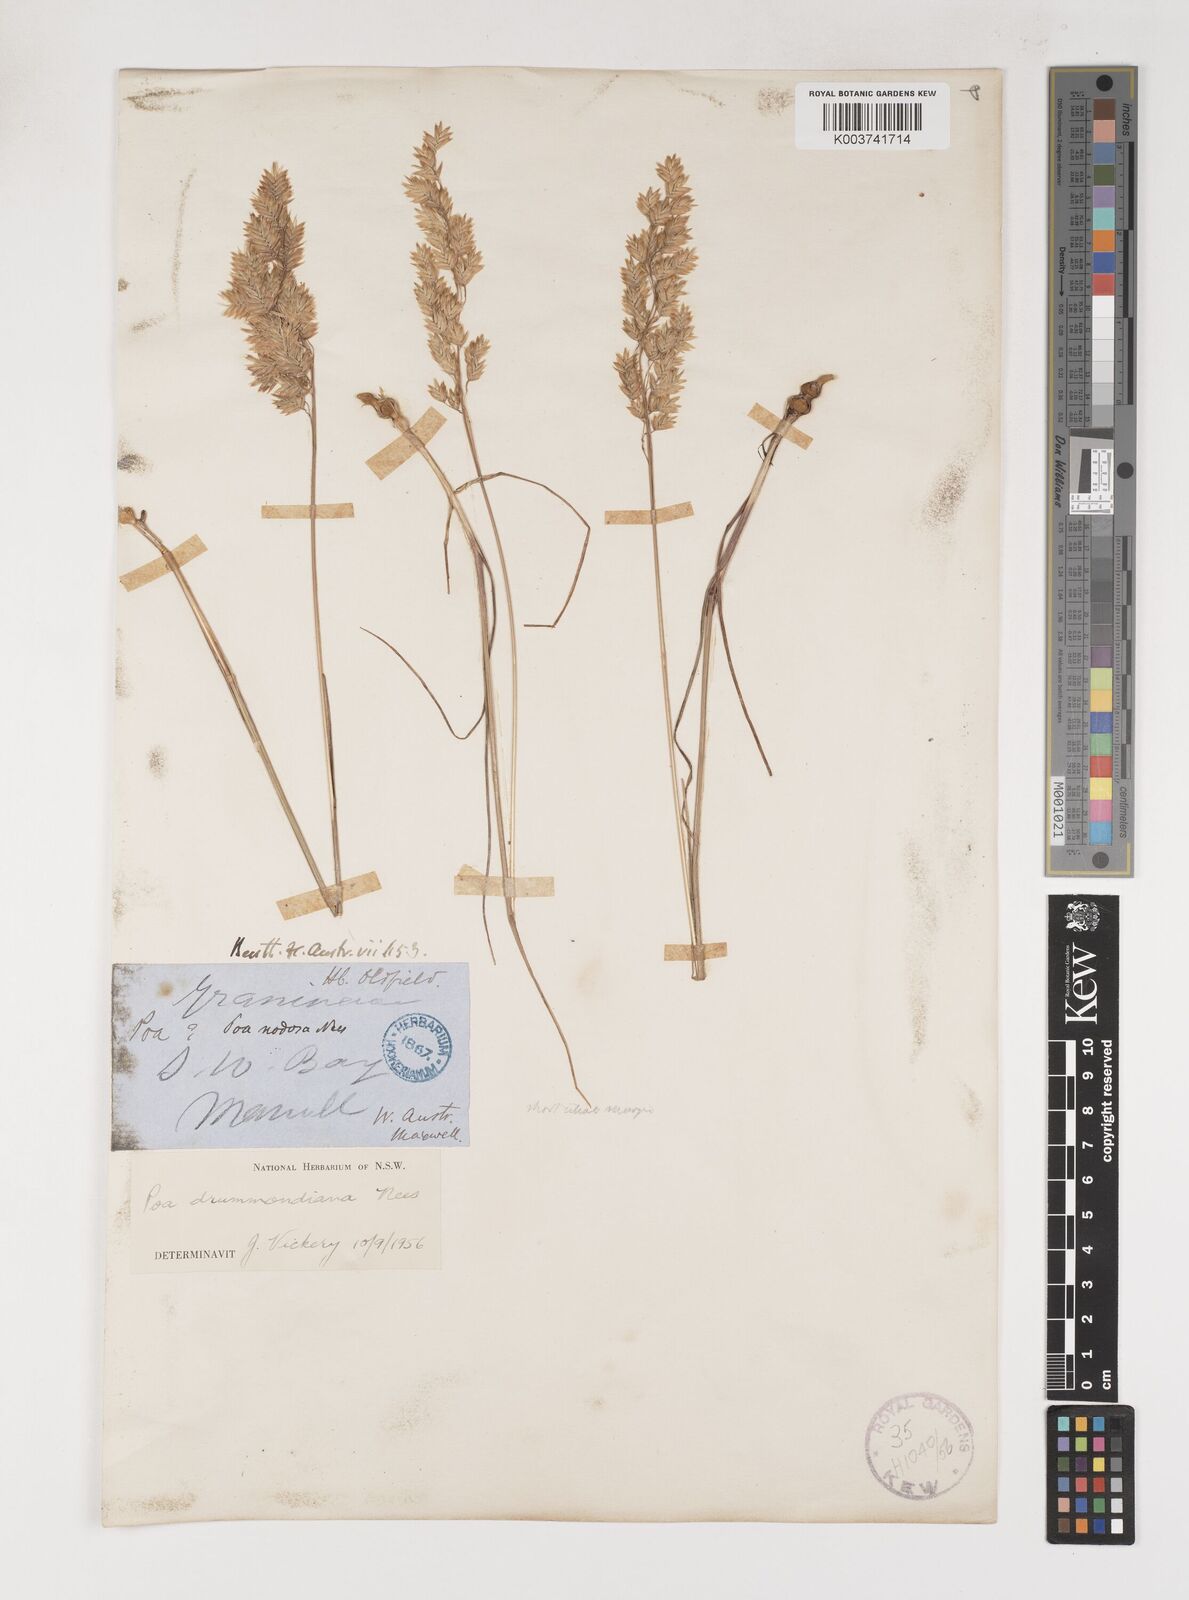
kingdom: Plantae
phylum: Tracheophyta
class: Liliopsida
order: Poales
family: Poaceae
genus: Poa
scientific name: Poa drummondiana
